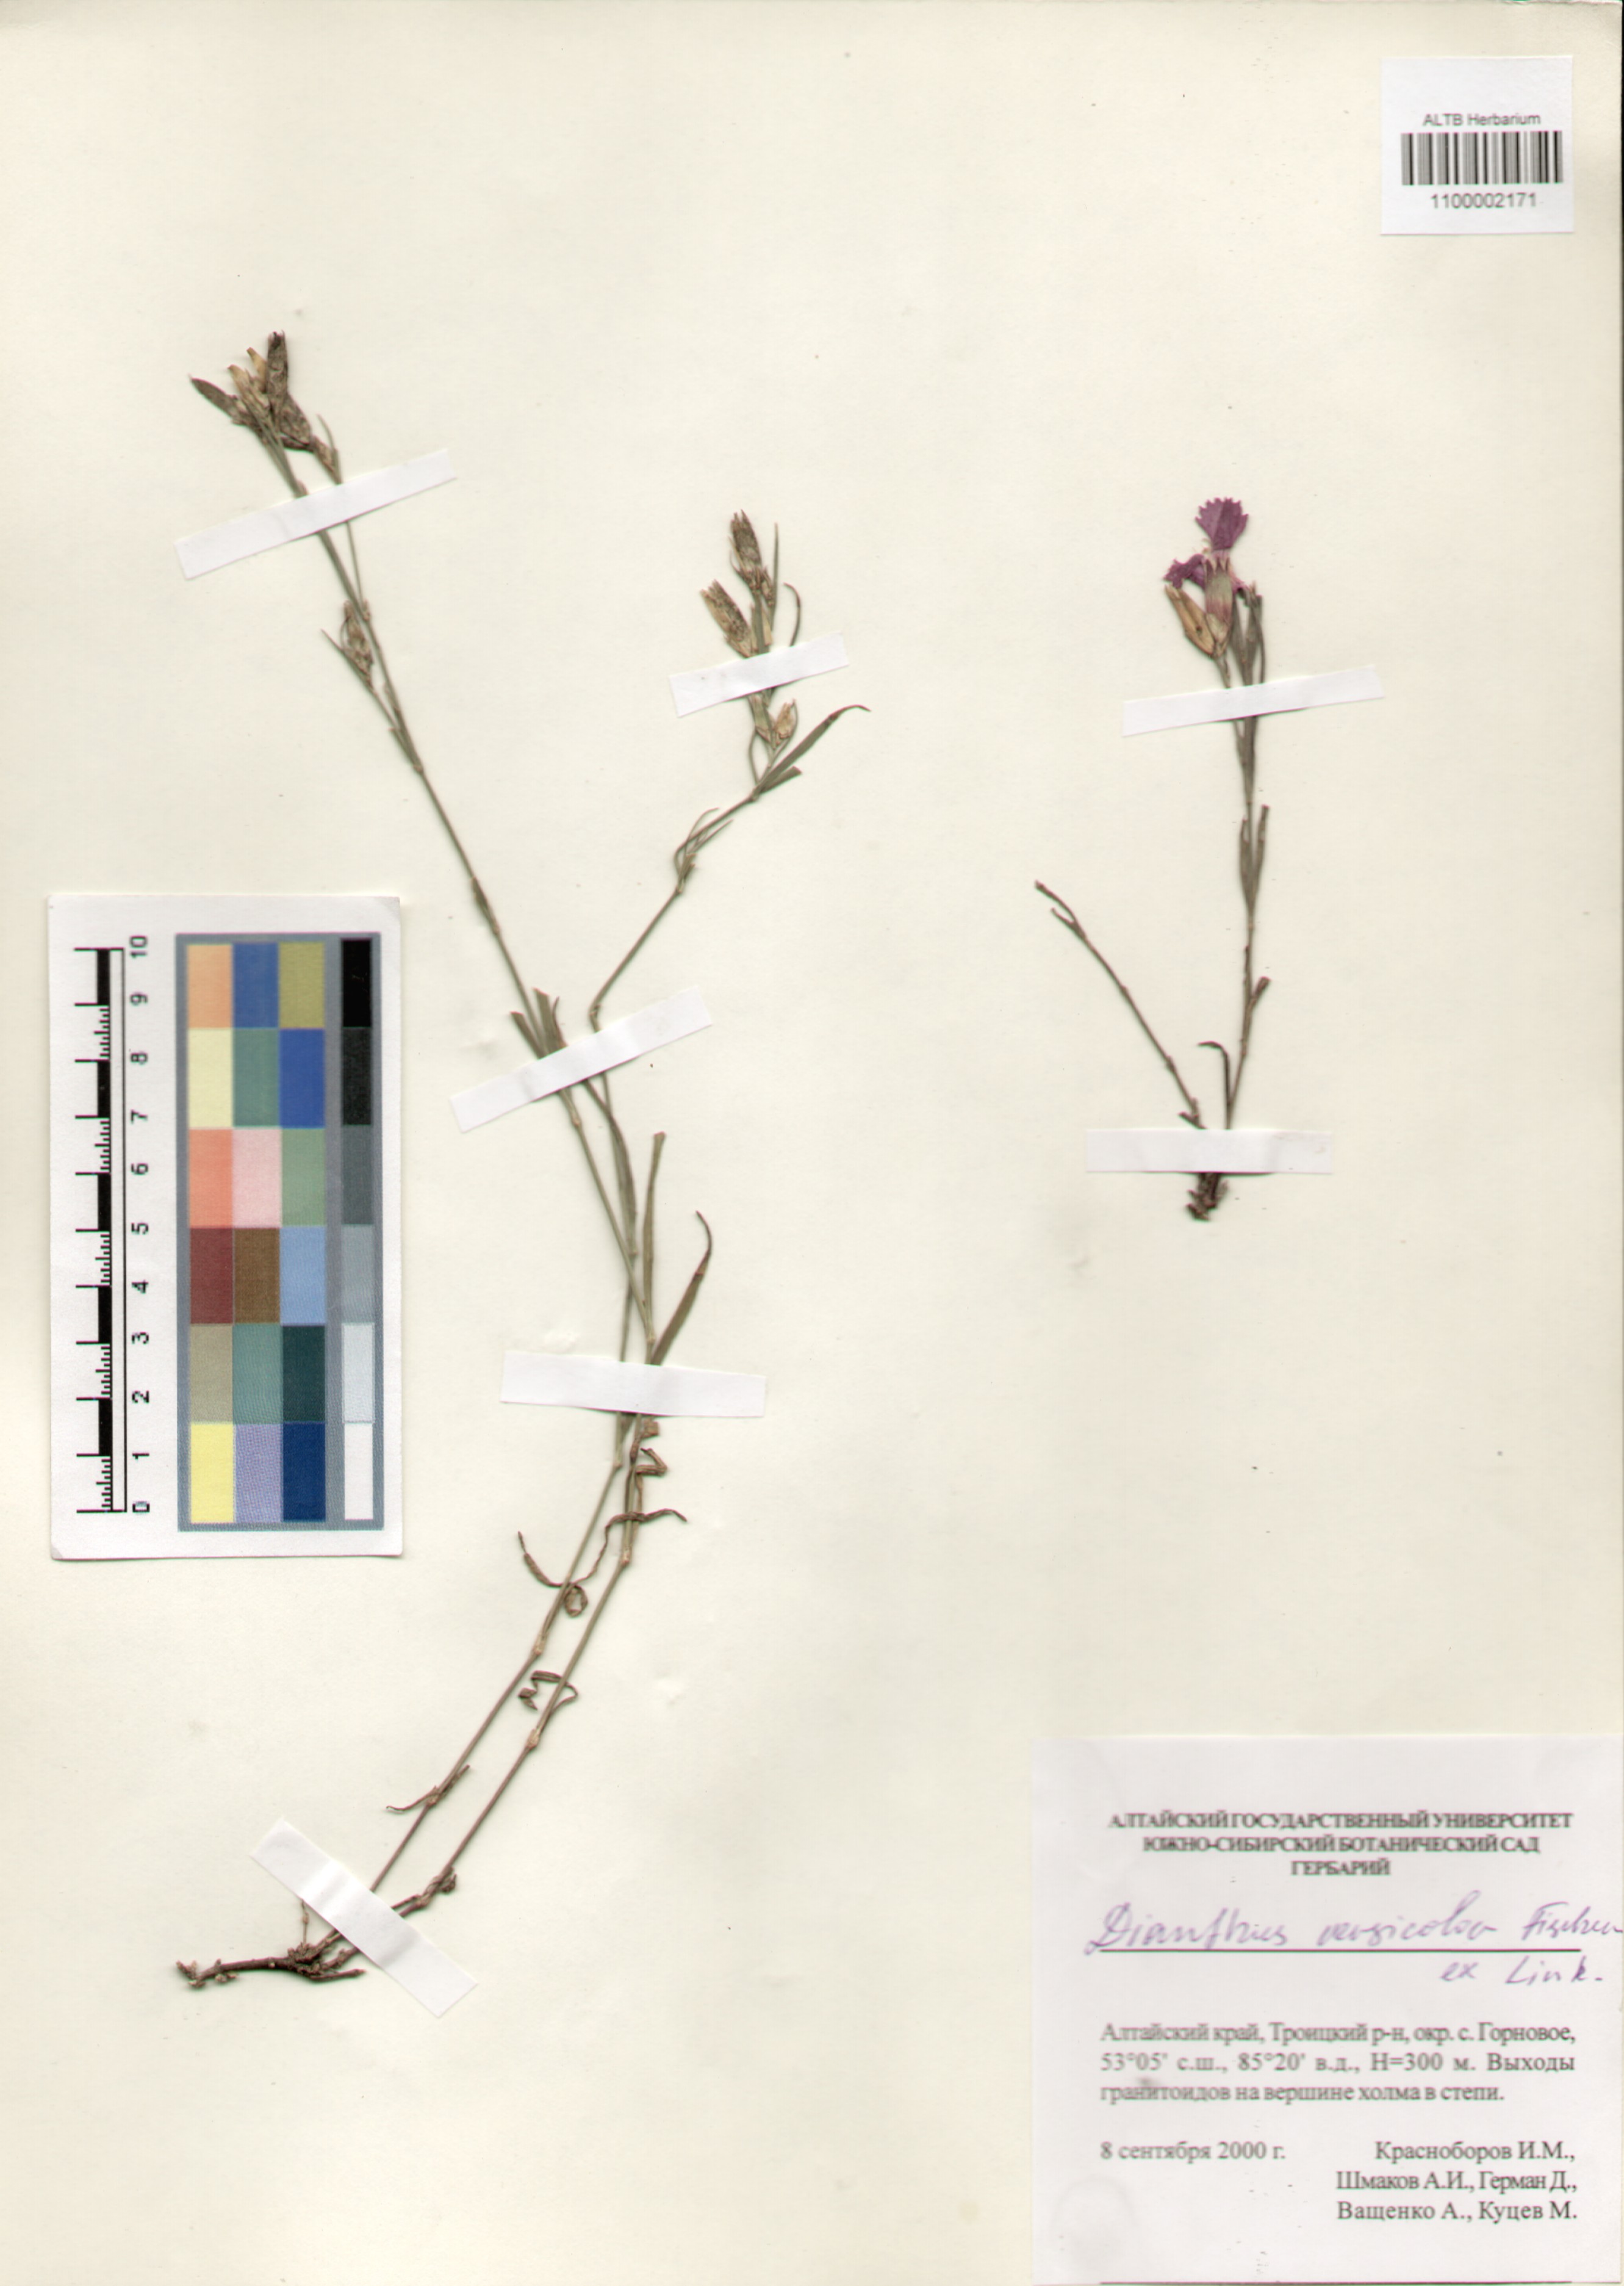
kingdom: Plantae
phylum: Tracheophyta
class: Magnoliopsida
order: Caryophyllales
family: Caryophyllaceae
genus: Dianthus
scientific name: Dianthus chinensis
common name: Rainbow pink
